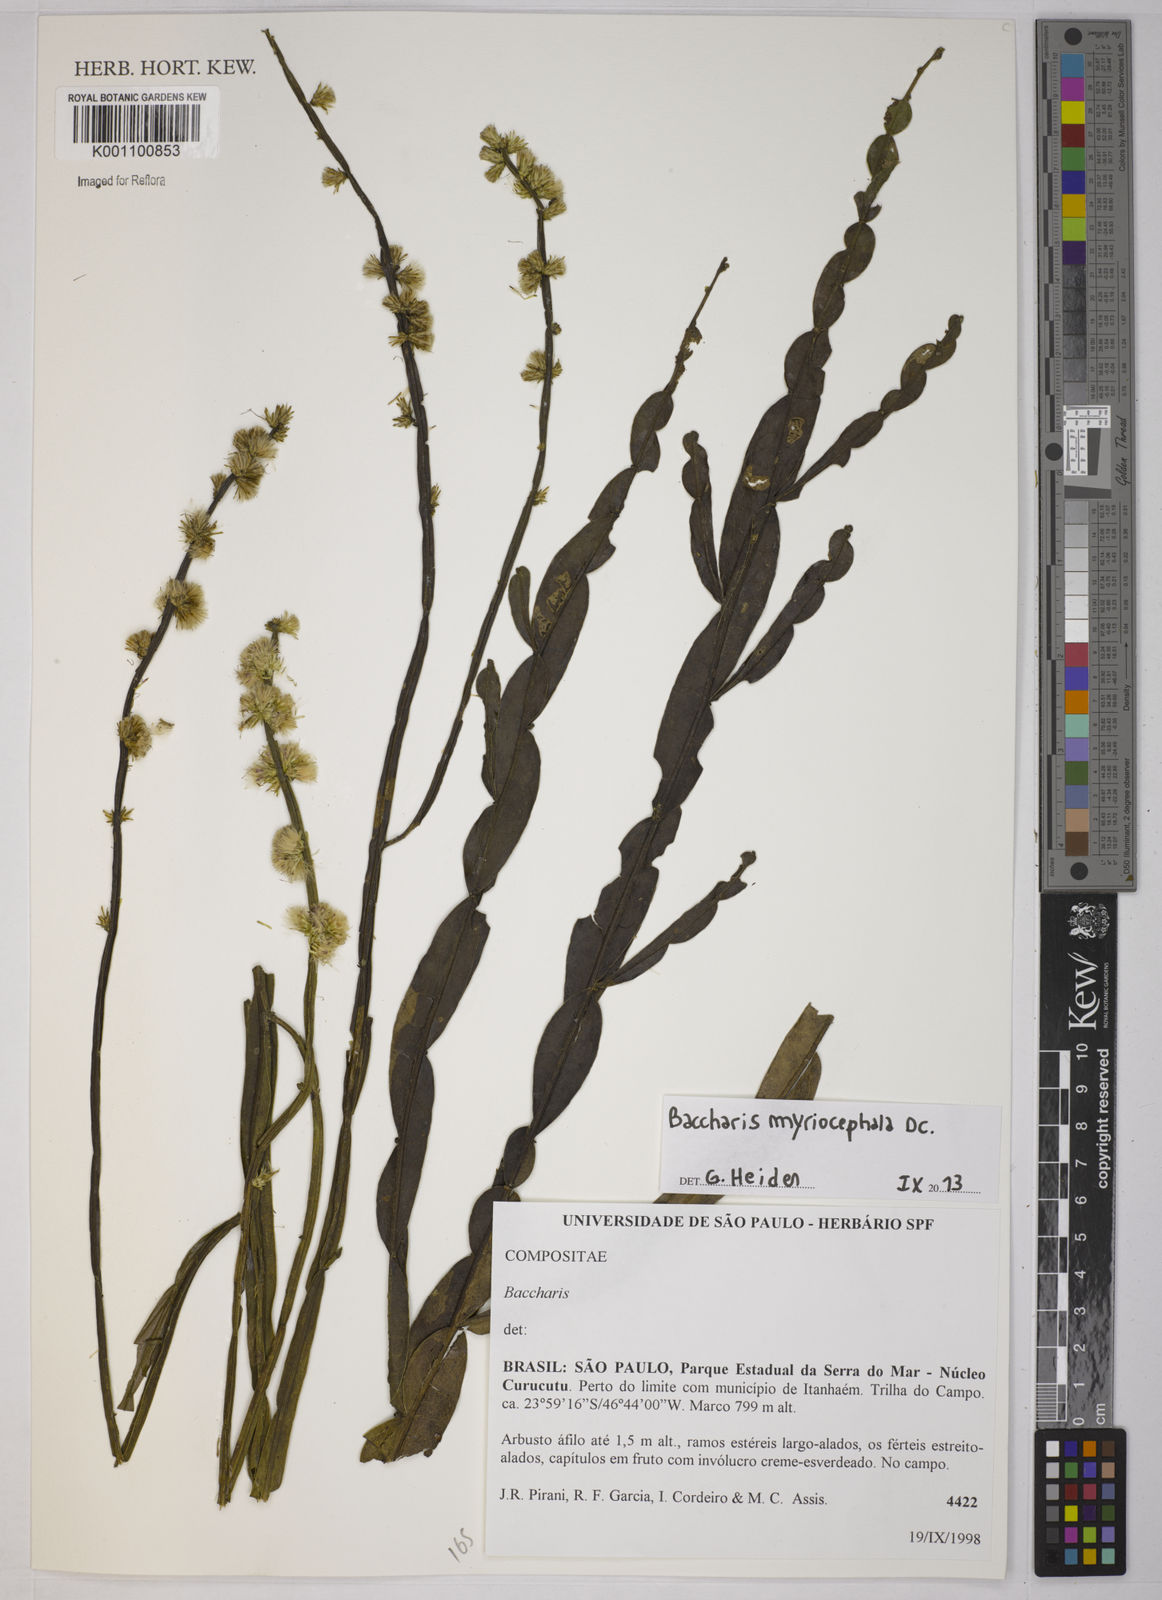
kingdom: Plantae
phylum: Tracheophyta
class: Magnoliopsida
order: Asterales
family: Asteraceae
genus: Baccharis
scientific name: Baccharis myriocephala
